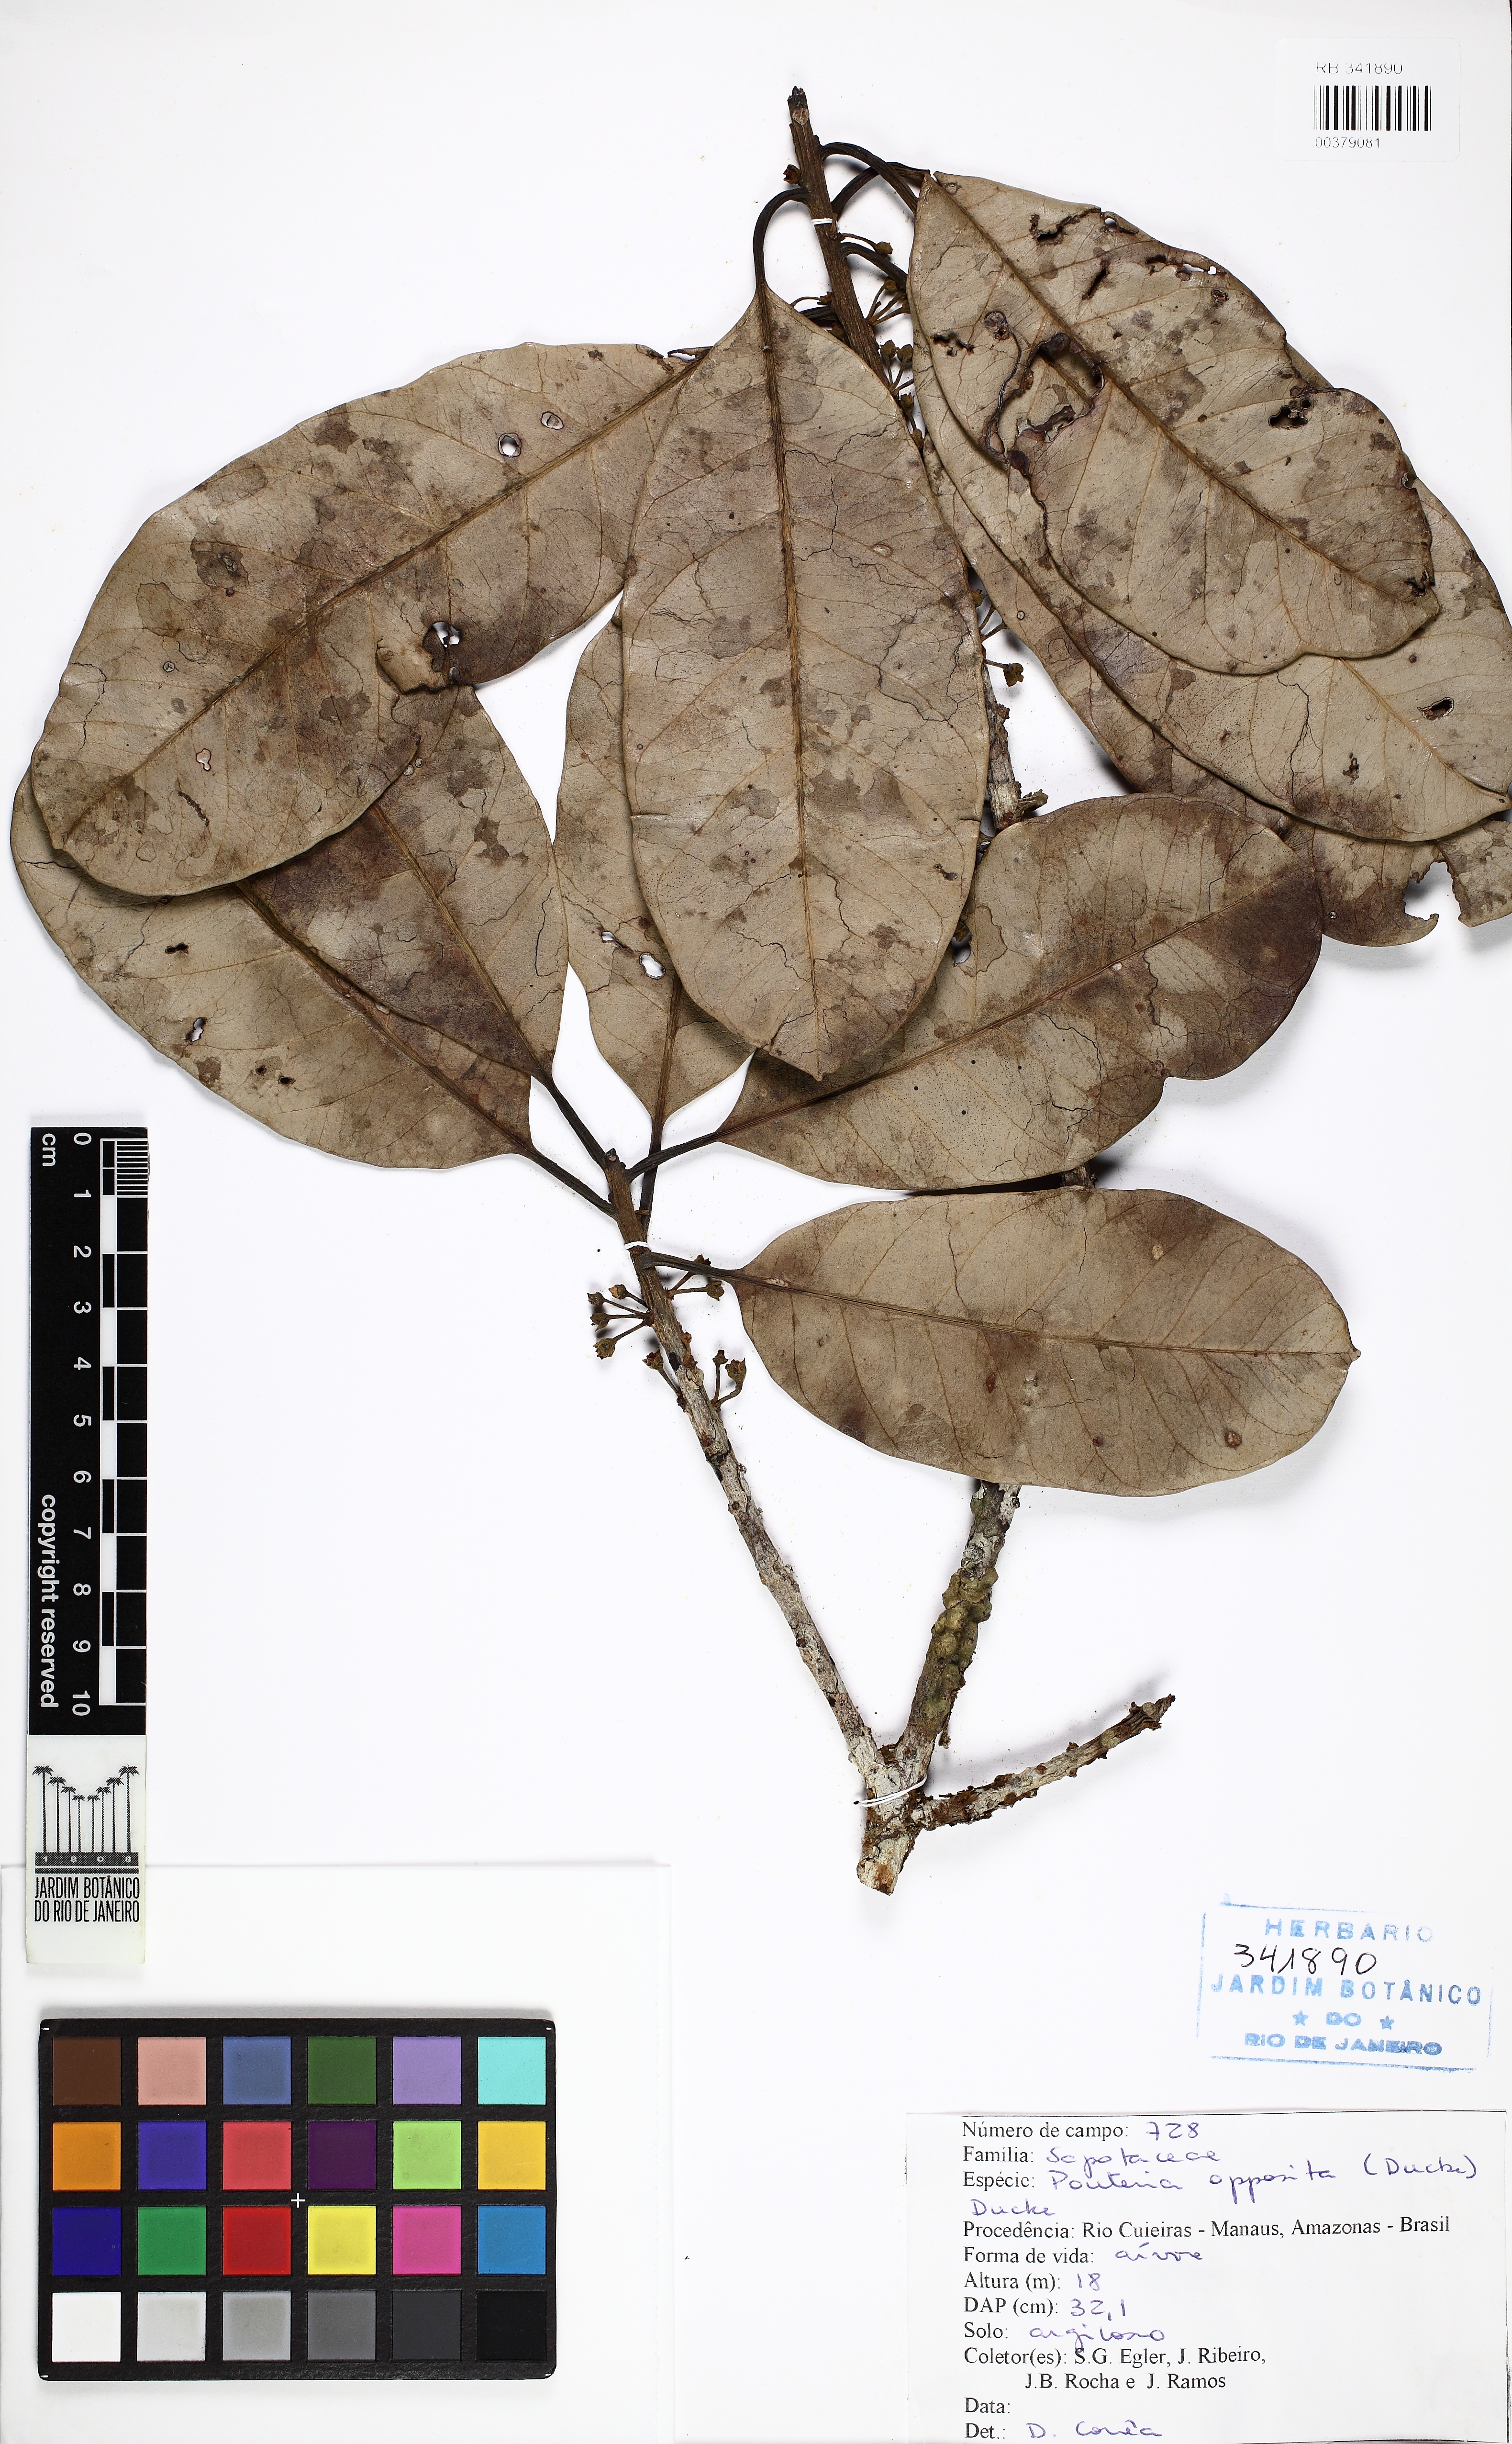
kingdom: Plantae
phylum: Tracheophyta
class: Magnoliopsida
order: Ericales
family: Sapotaceae
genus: Pouteria
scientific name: Pouteria opposita
